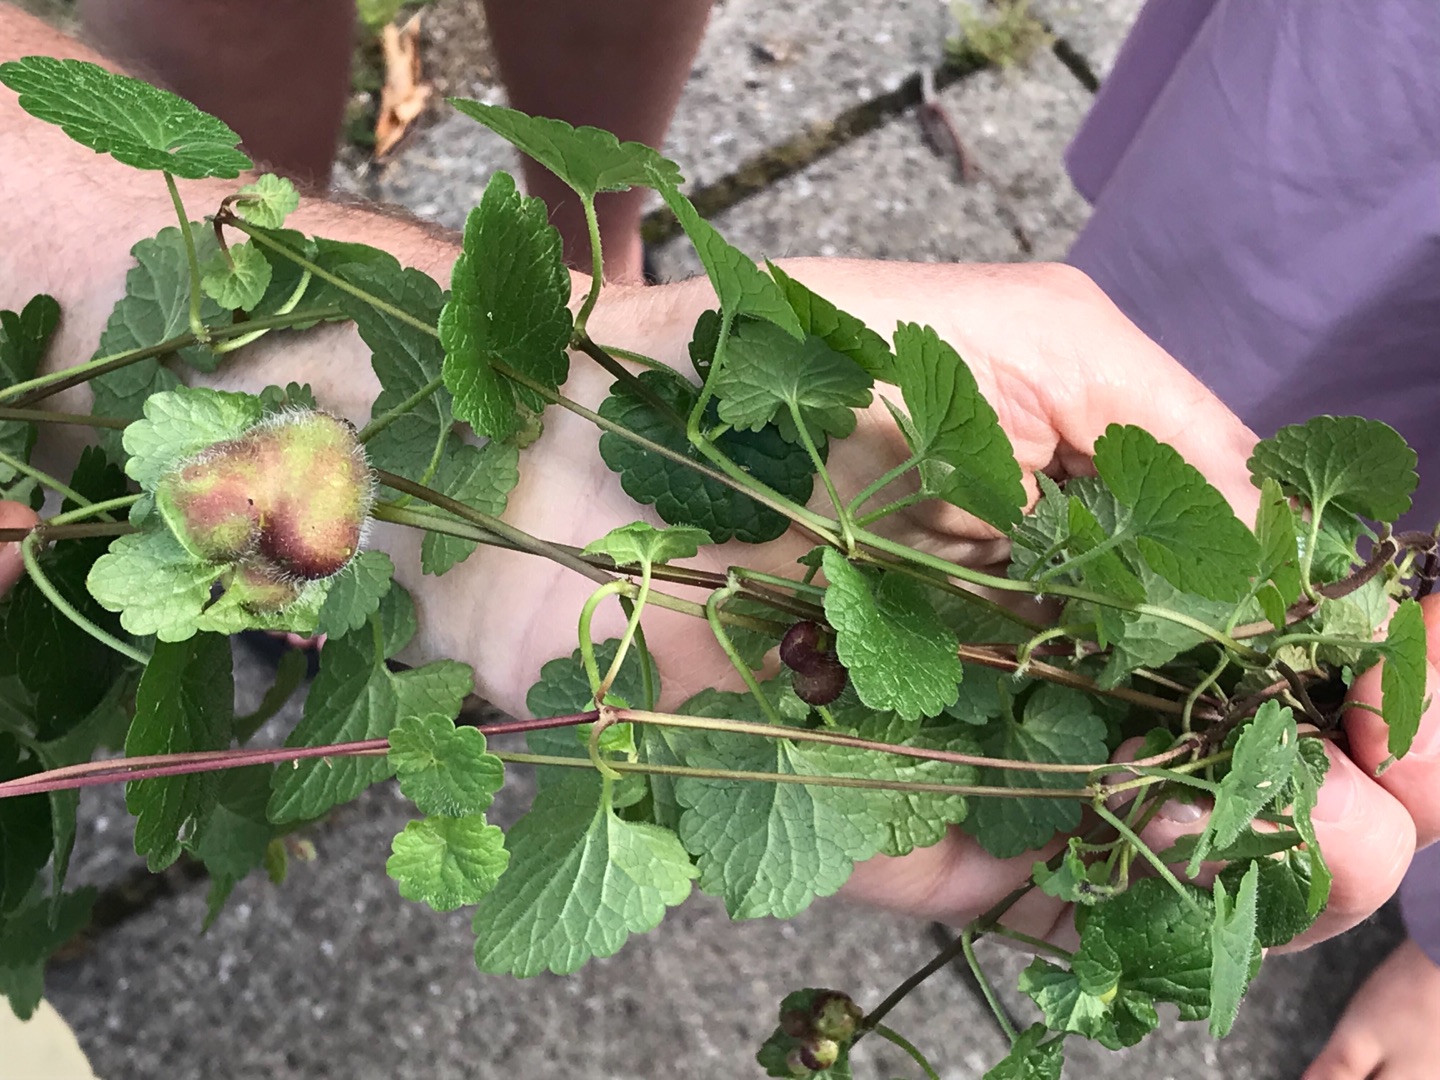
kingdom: Animalia
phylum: Arthropoda
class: Insecta
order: Hymenoptera
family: Cynipidae
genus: Liposthenes
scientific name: Liposthenes glechomae
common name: Korsknapgalhveps
